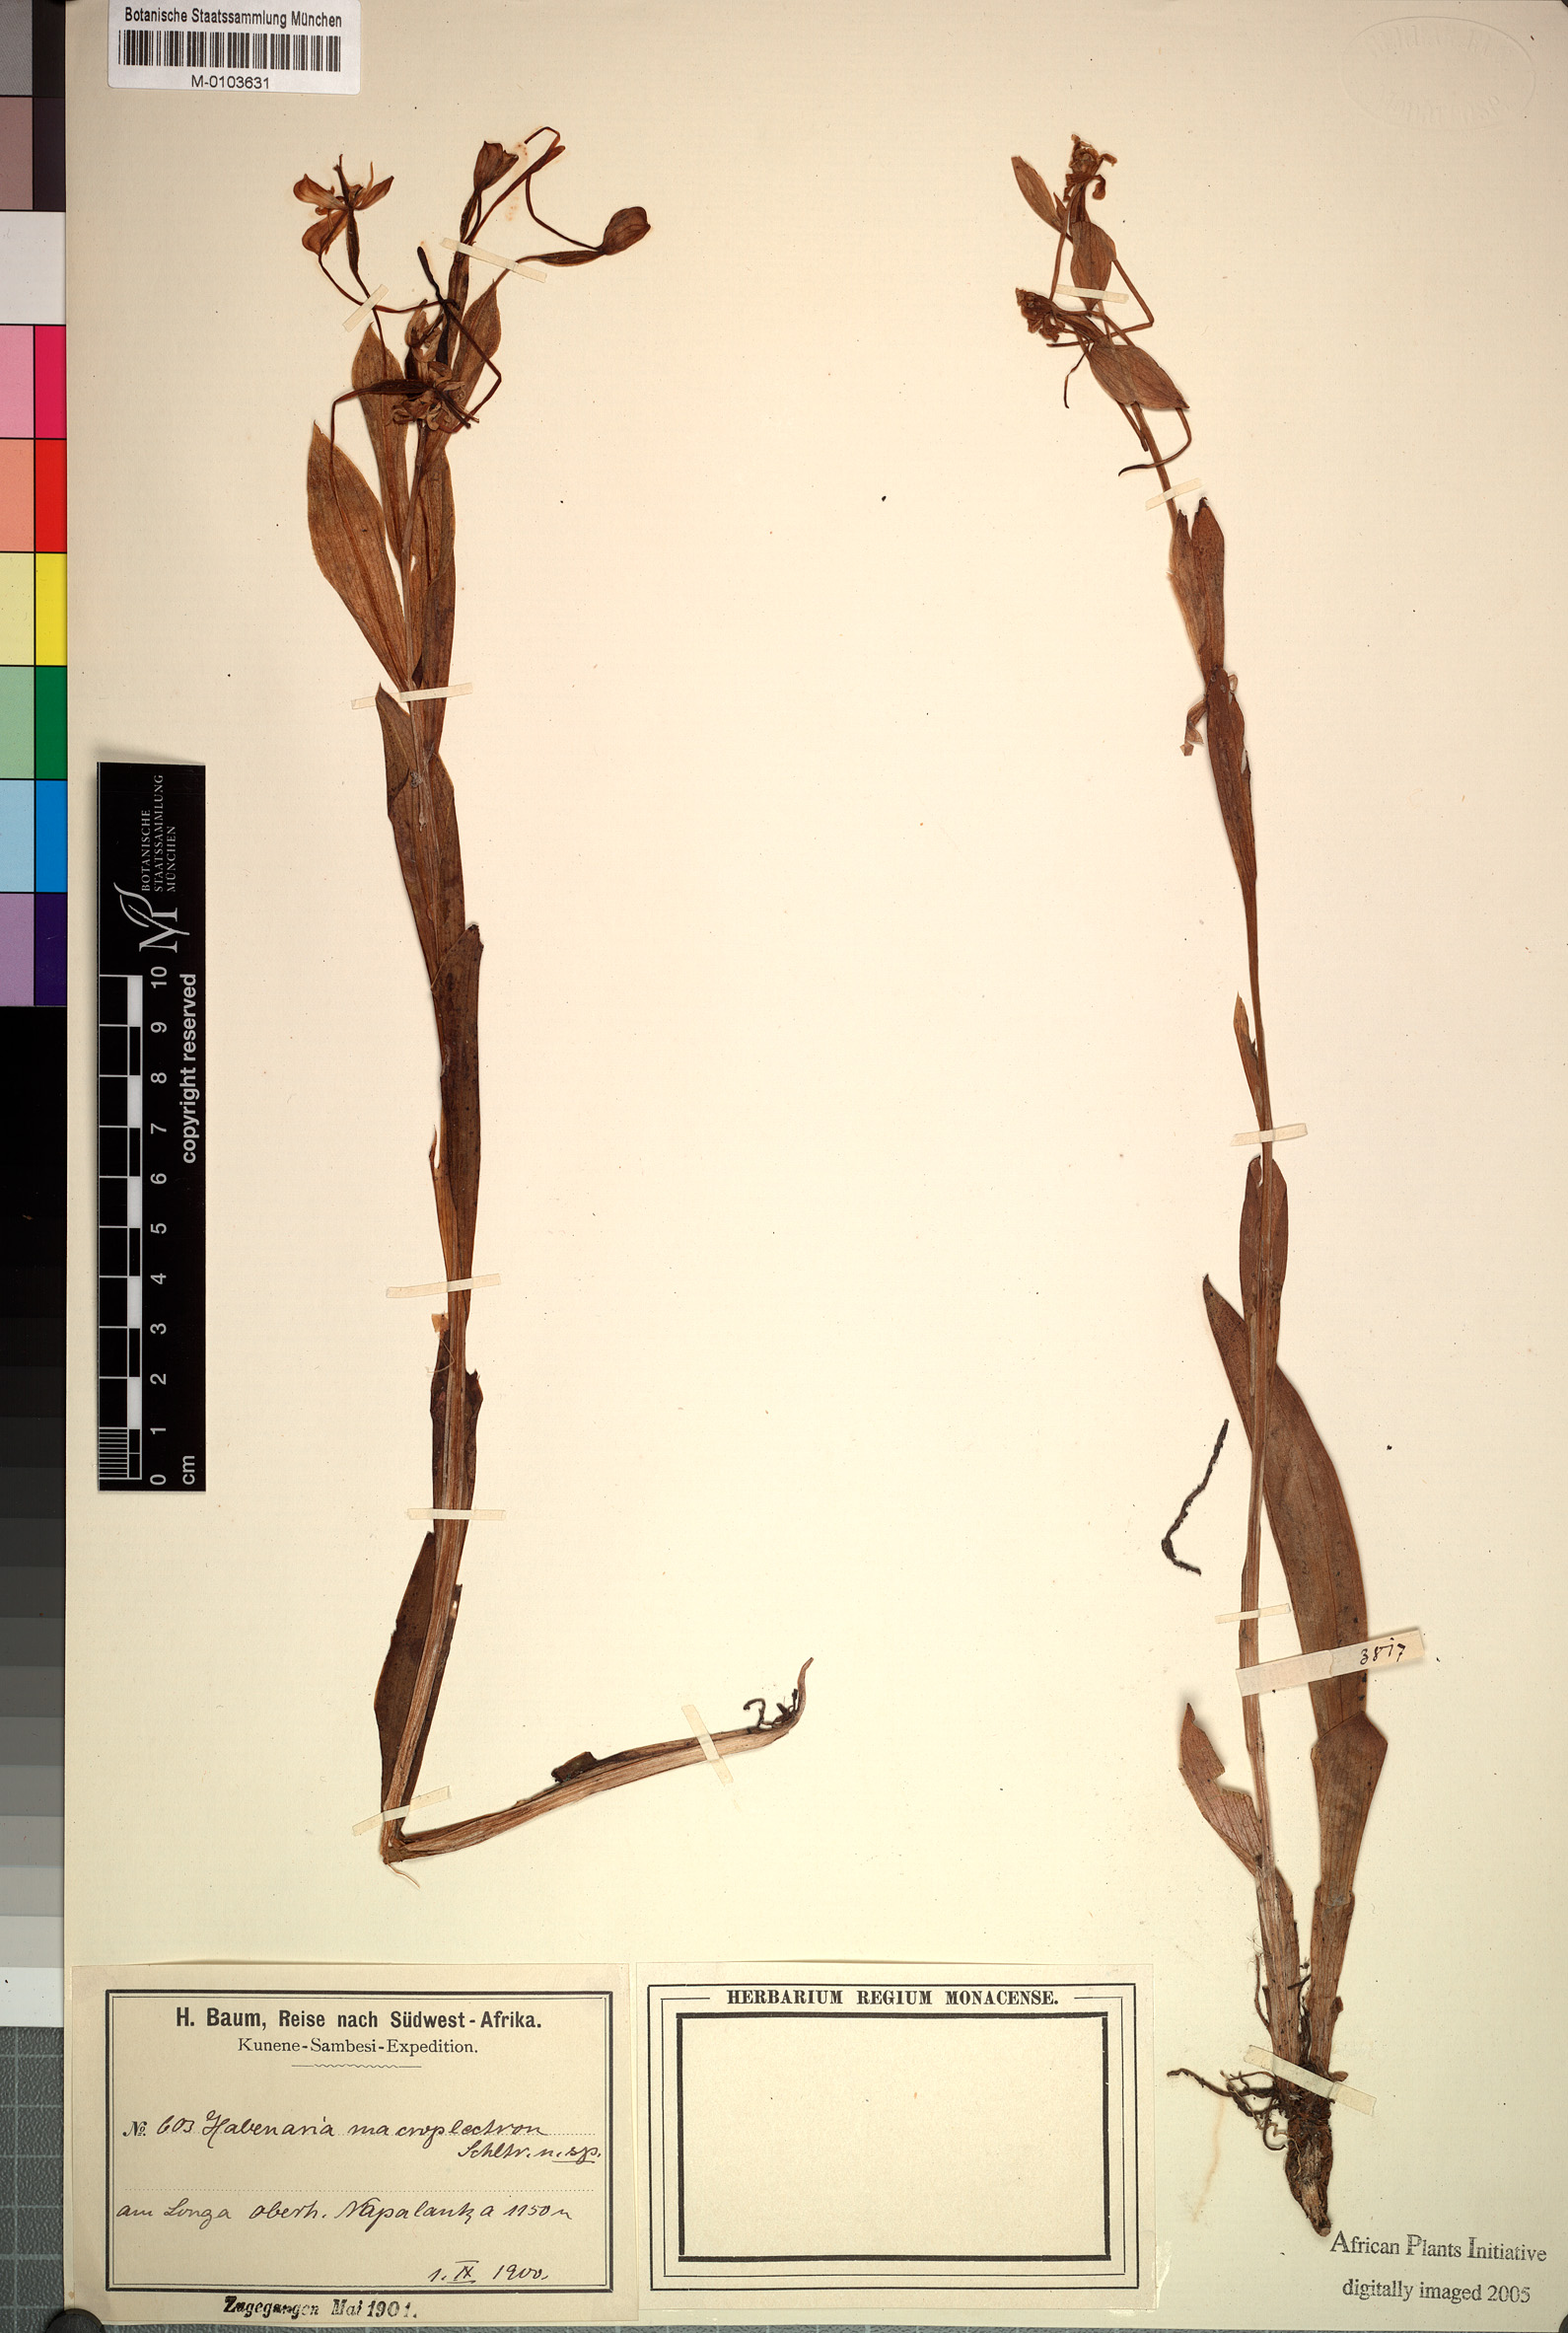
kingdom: Plantae
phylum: Tracheophyta
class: Liliopsida
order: Asparagales
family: Orchidaceae
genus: Habenaria
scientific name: Habenaria macroplectron
